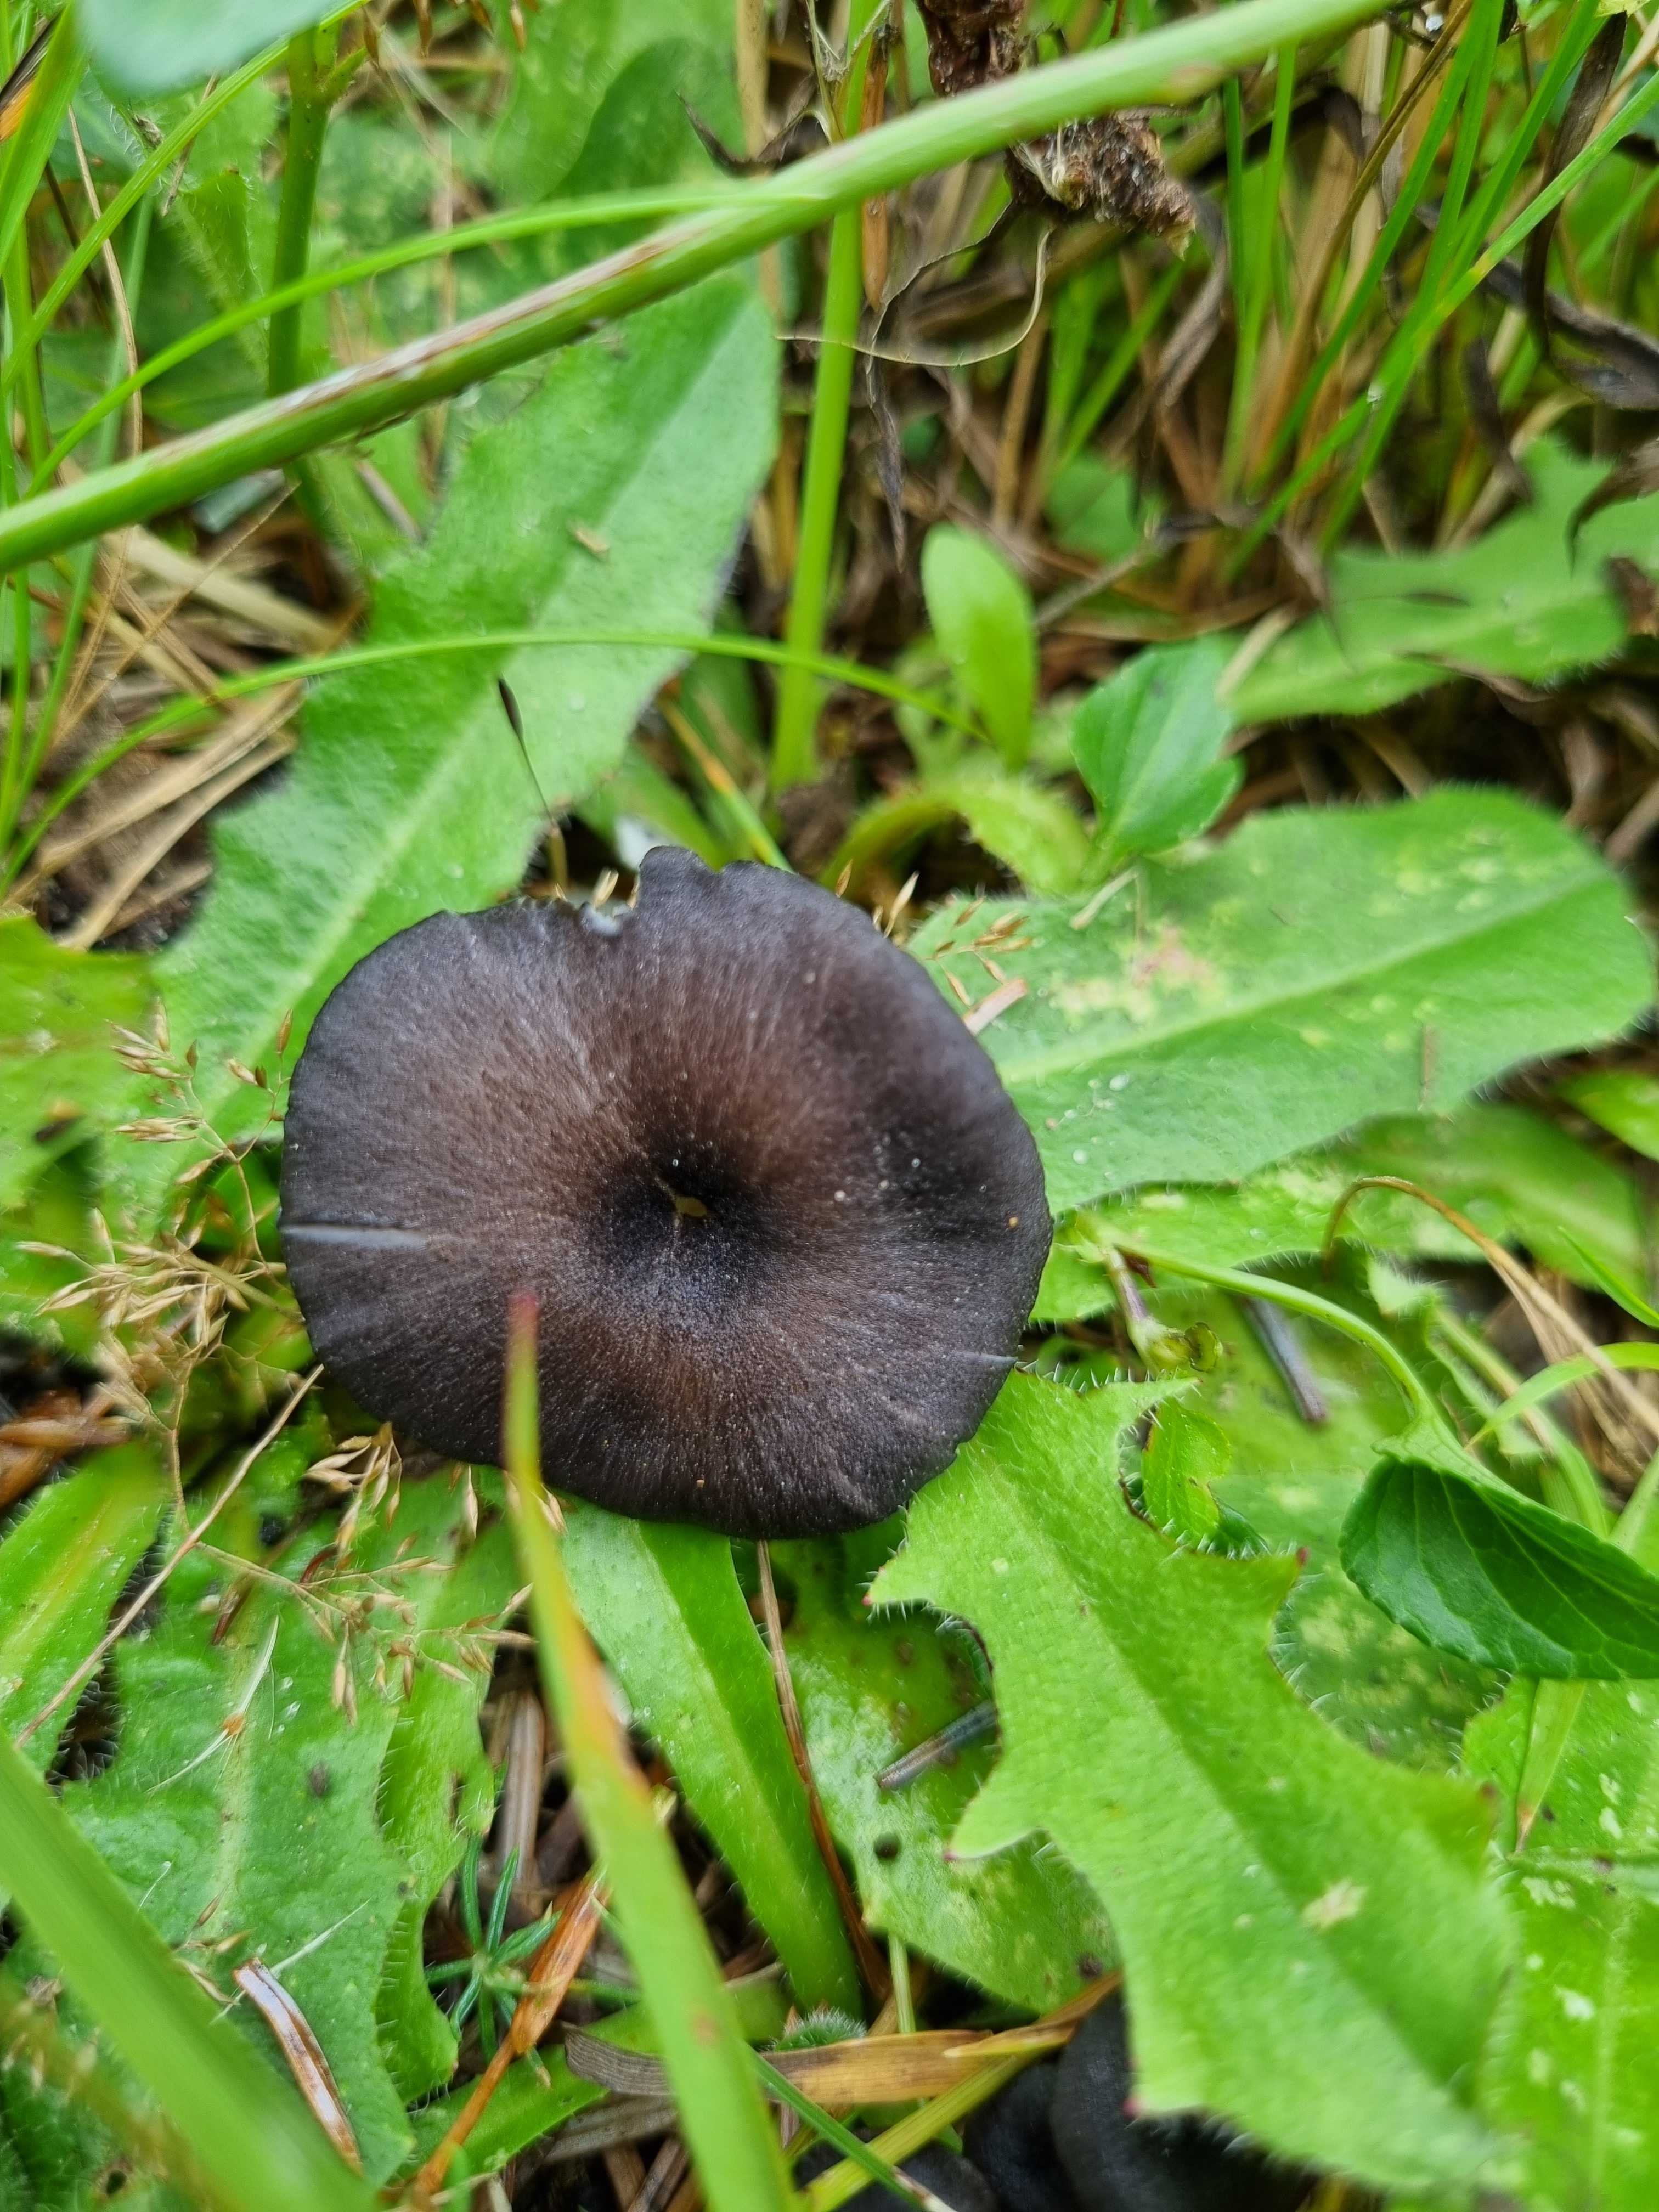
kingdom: Fungi
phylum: Basidiomycota
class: Agaricomycetes
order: Agaricales
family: Entolomataceae
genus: Entoloma
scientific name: Entoloma
